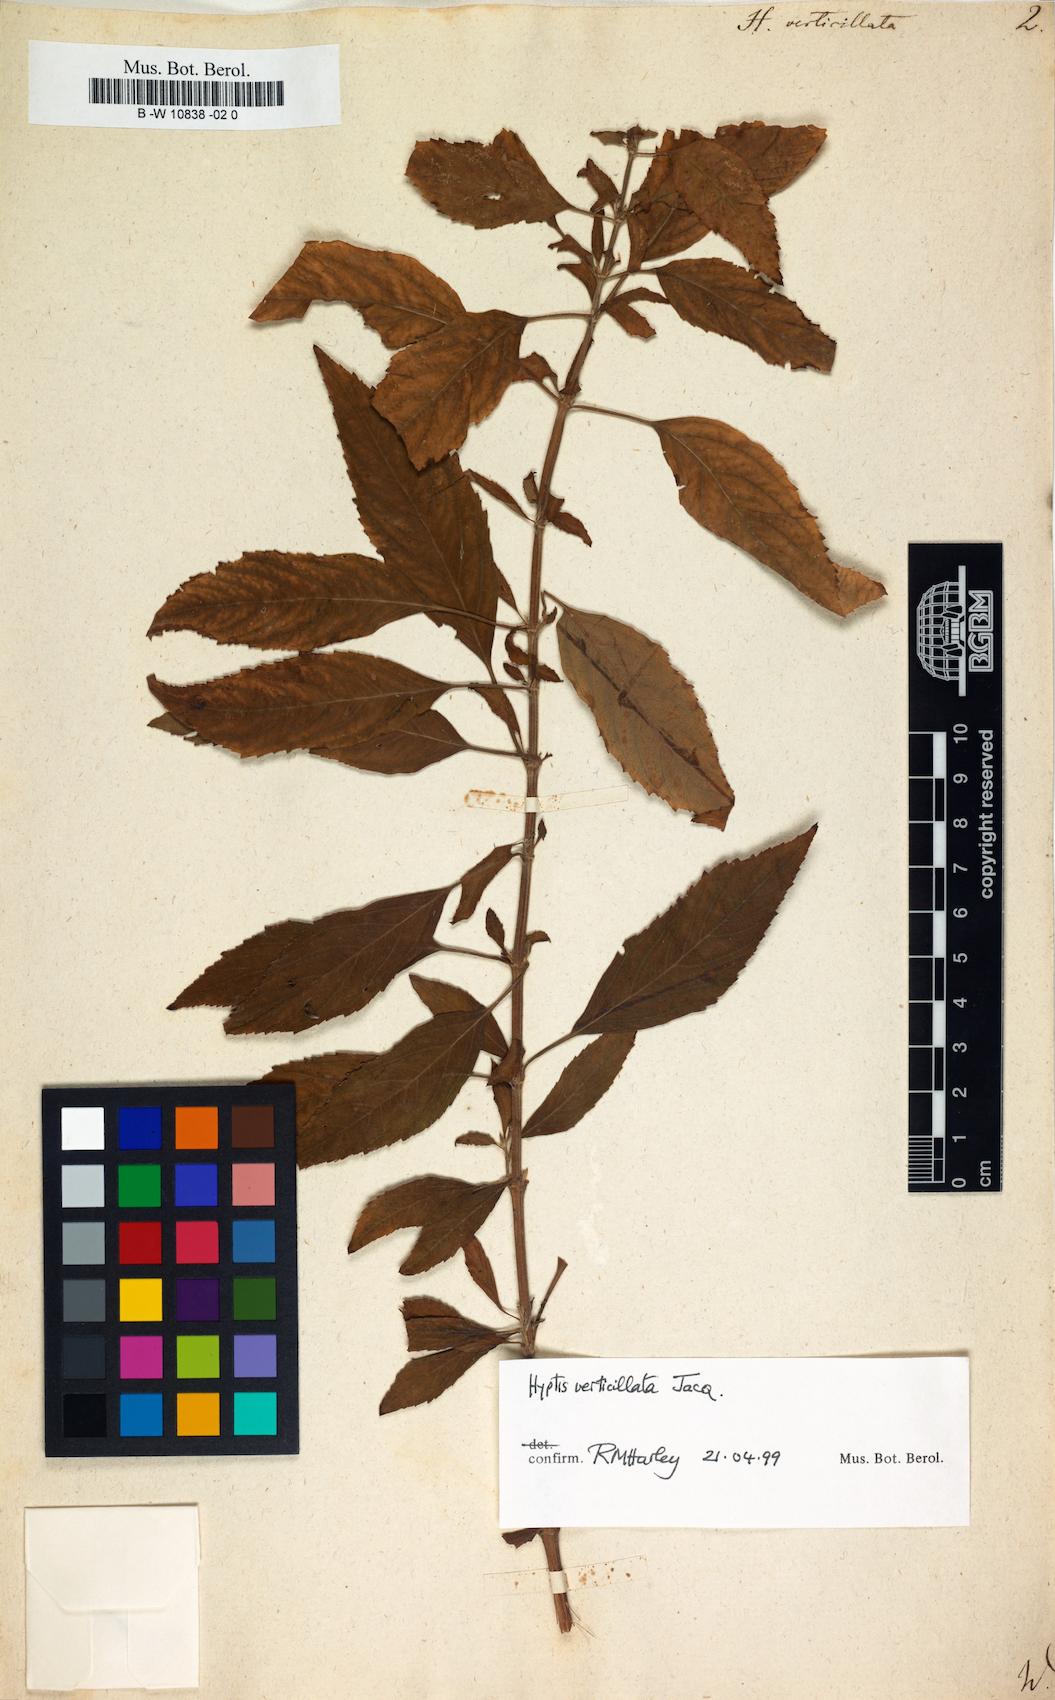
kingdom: Plantae
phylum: Tracheophyta
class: Magnoliopsida
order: Lamiales
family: Lamiaceae
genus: Condea
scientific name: Condea verticillata
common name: John charles
